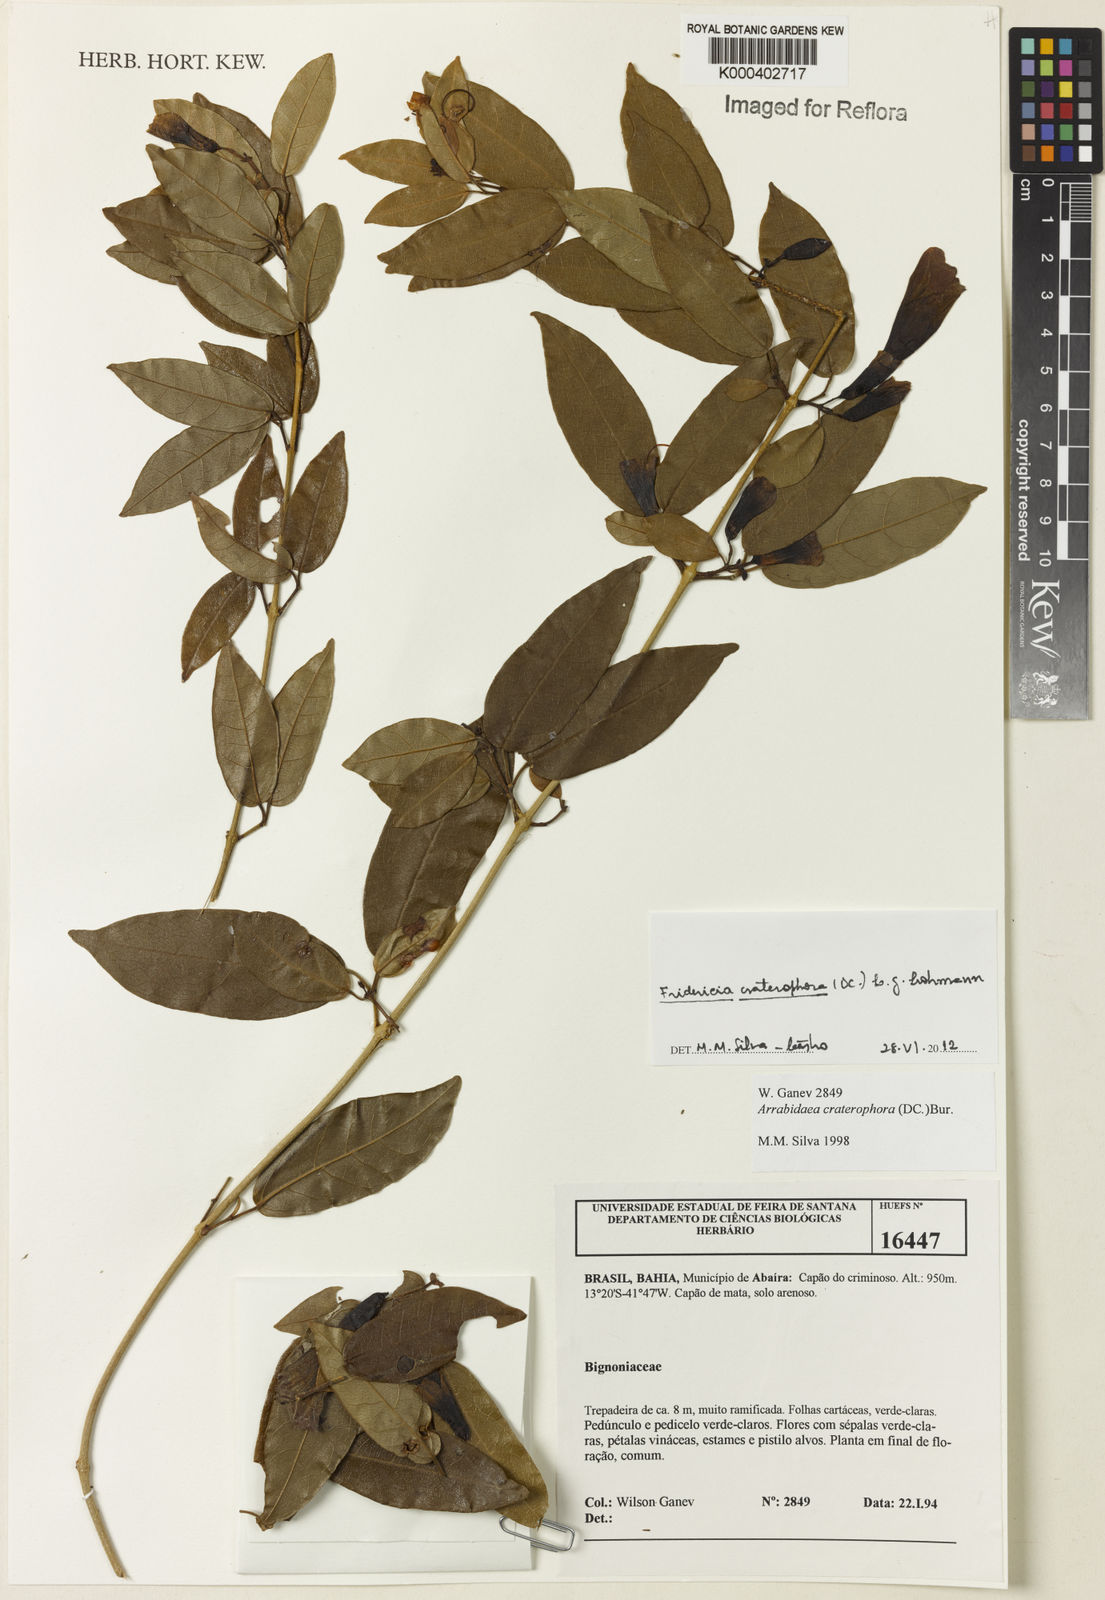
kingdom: Plantae
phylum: Tracheophyta
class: Magnoliopsida
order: Lamiales
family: Bignoniaceae
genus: Fridericia
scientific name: Fridericia craterophora
